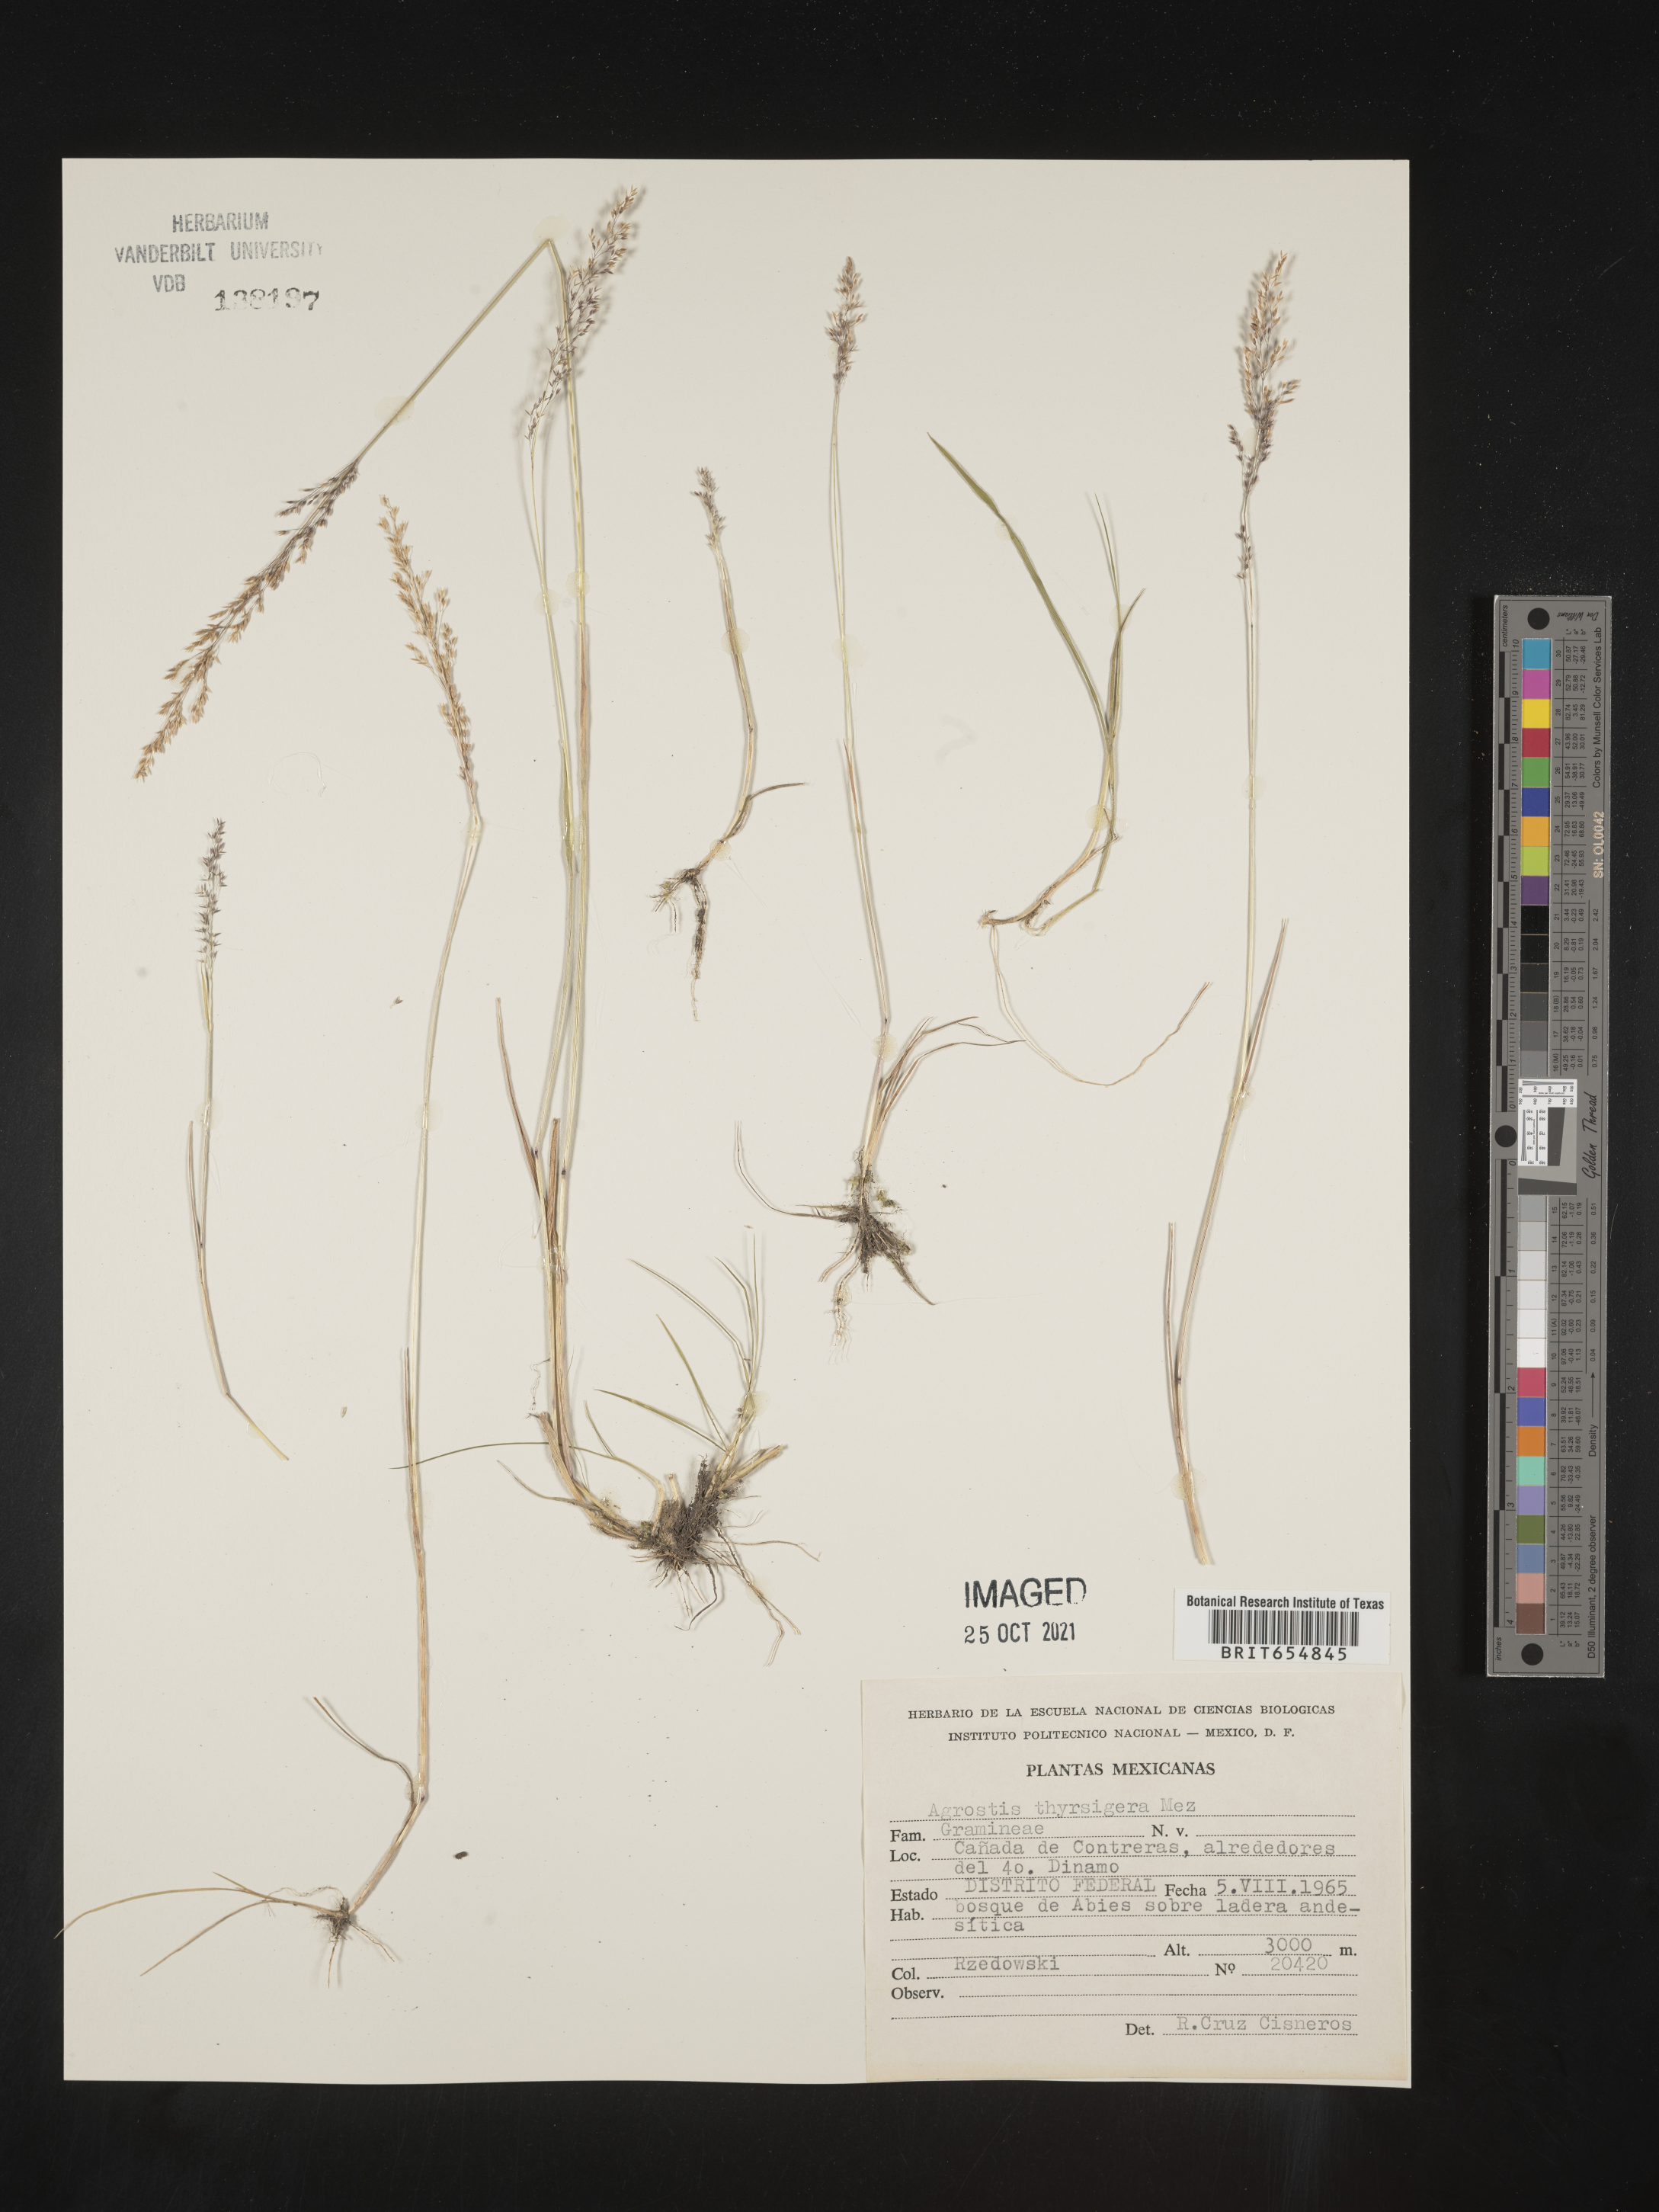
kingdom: Plantae
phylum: Tracheophyta
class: Liliopsida
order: Poales
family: Poaceae
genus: Agrostis
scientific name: Agrostis
